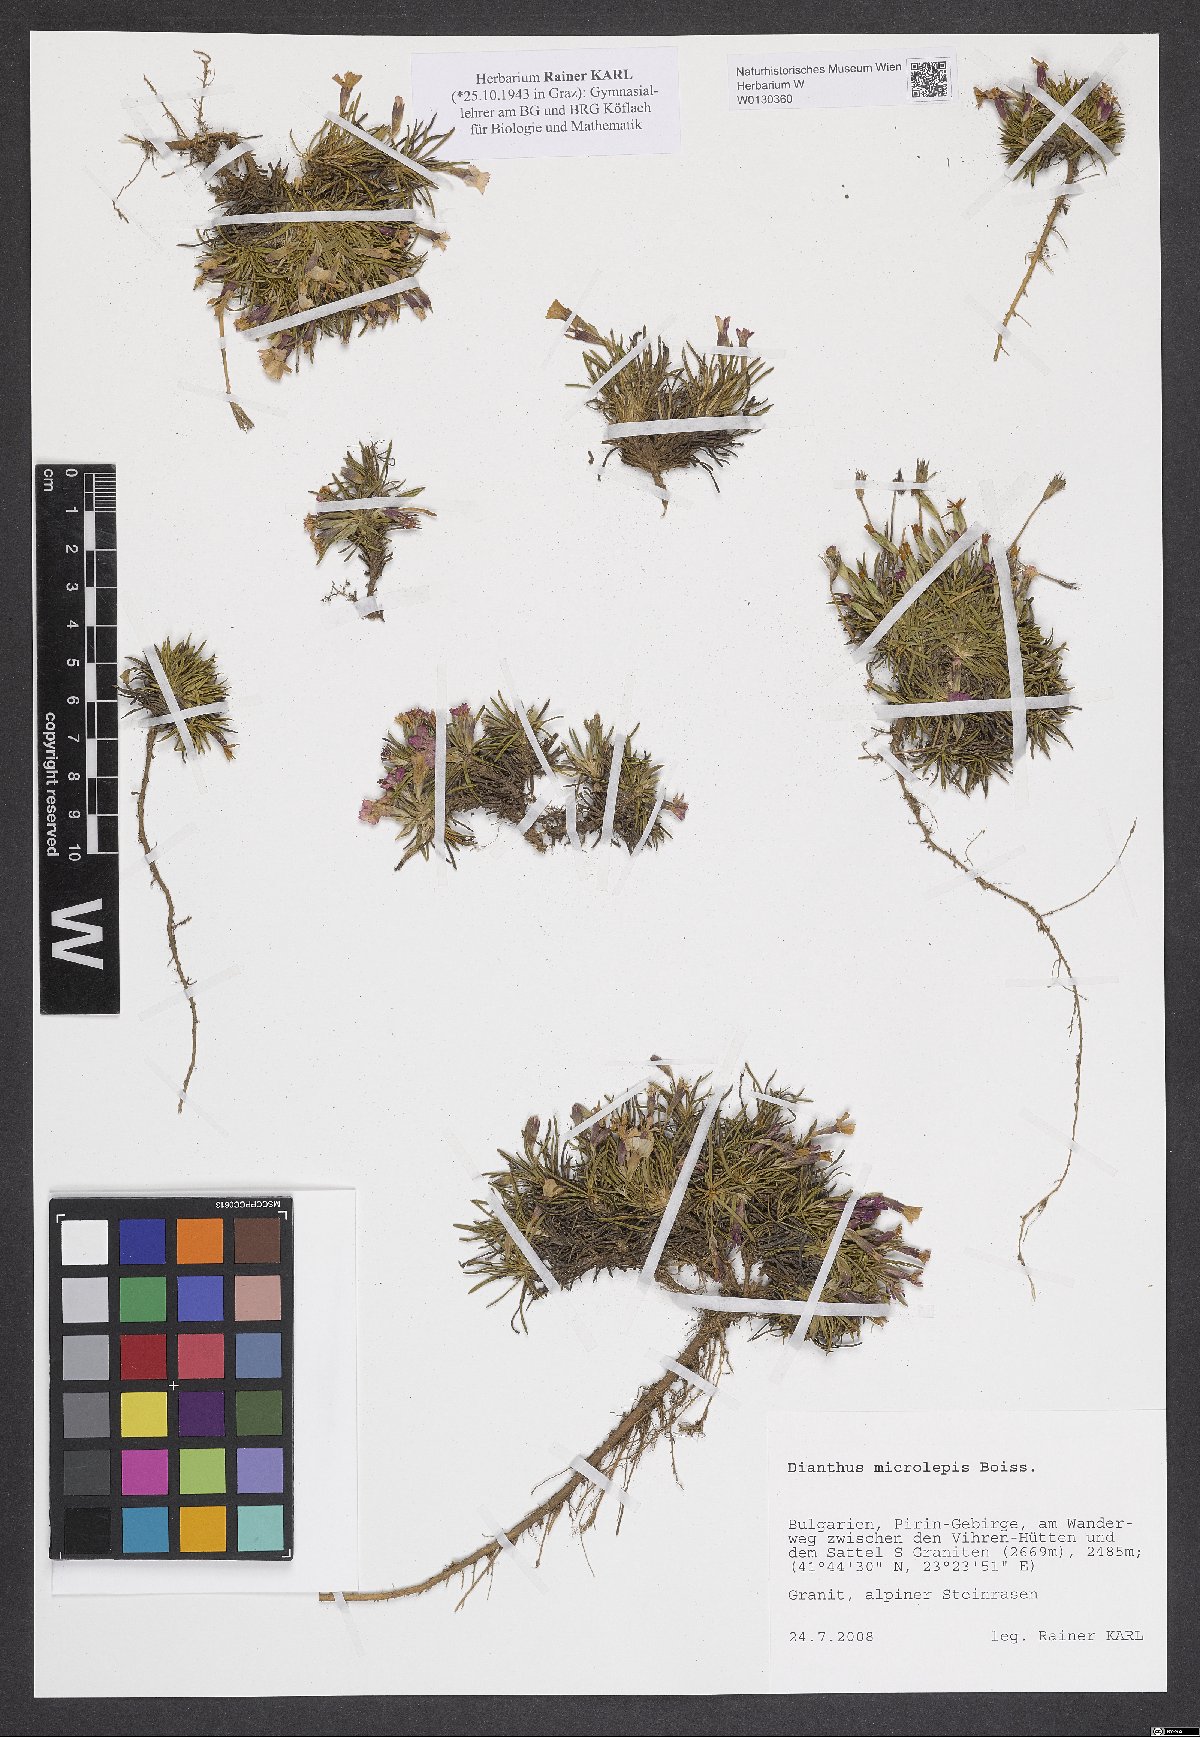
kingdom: Plantae
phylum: Tracheophyta
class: Magnoliopsida
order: Caryophyllales
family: Caryophyllaceae
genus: Dianthus
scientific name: Dianthus microlepis
